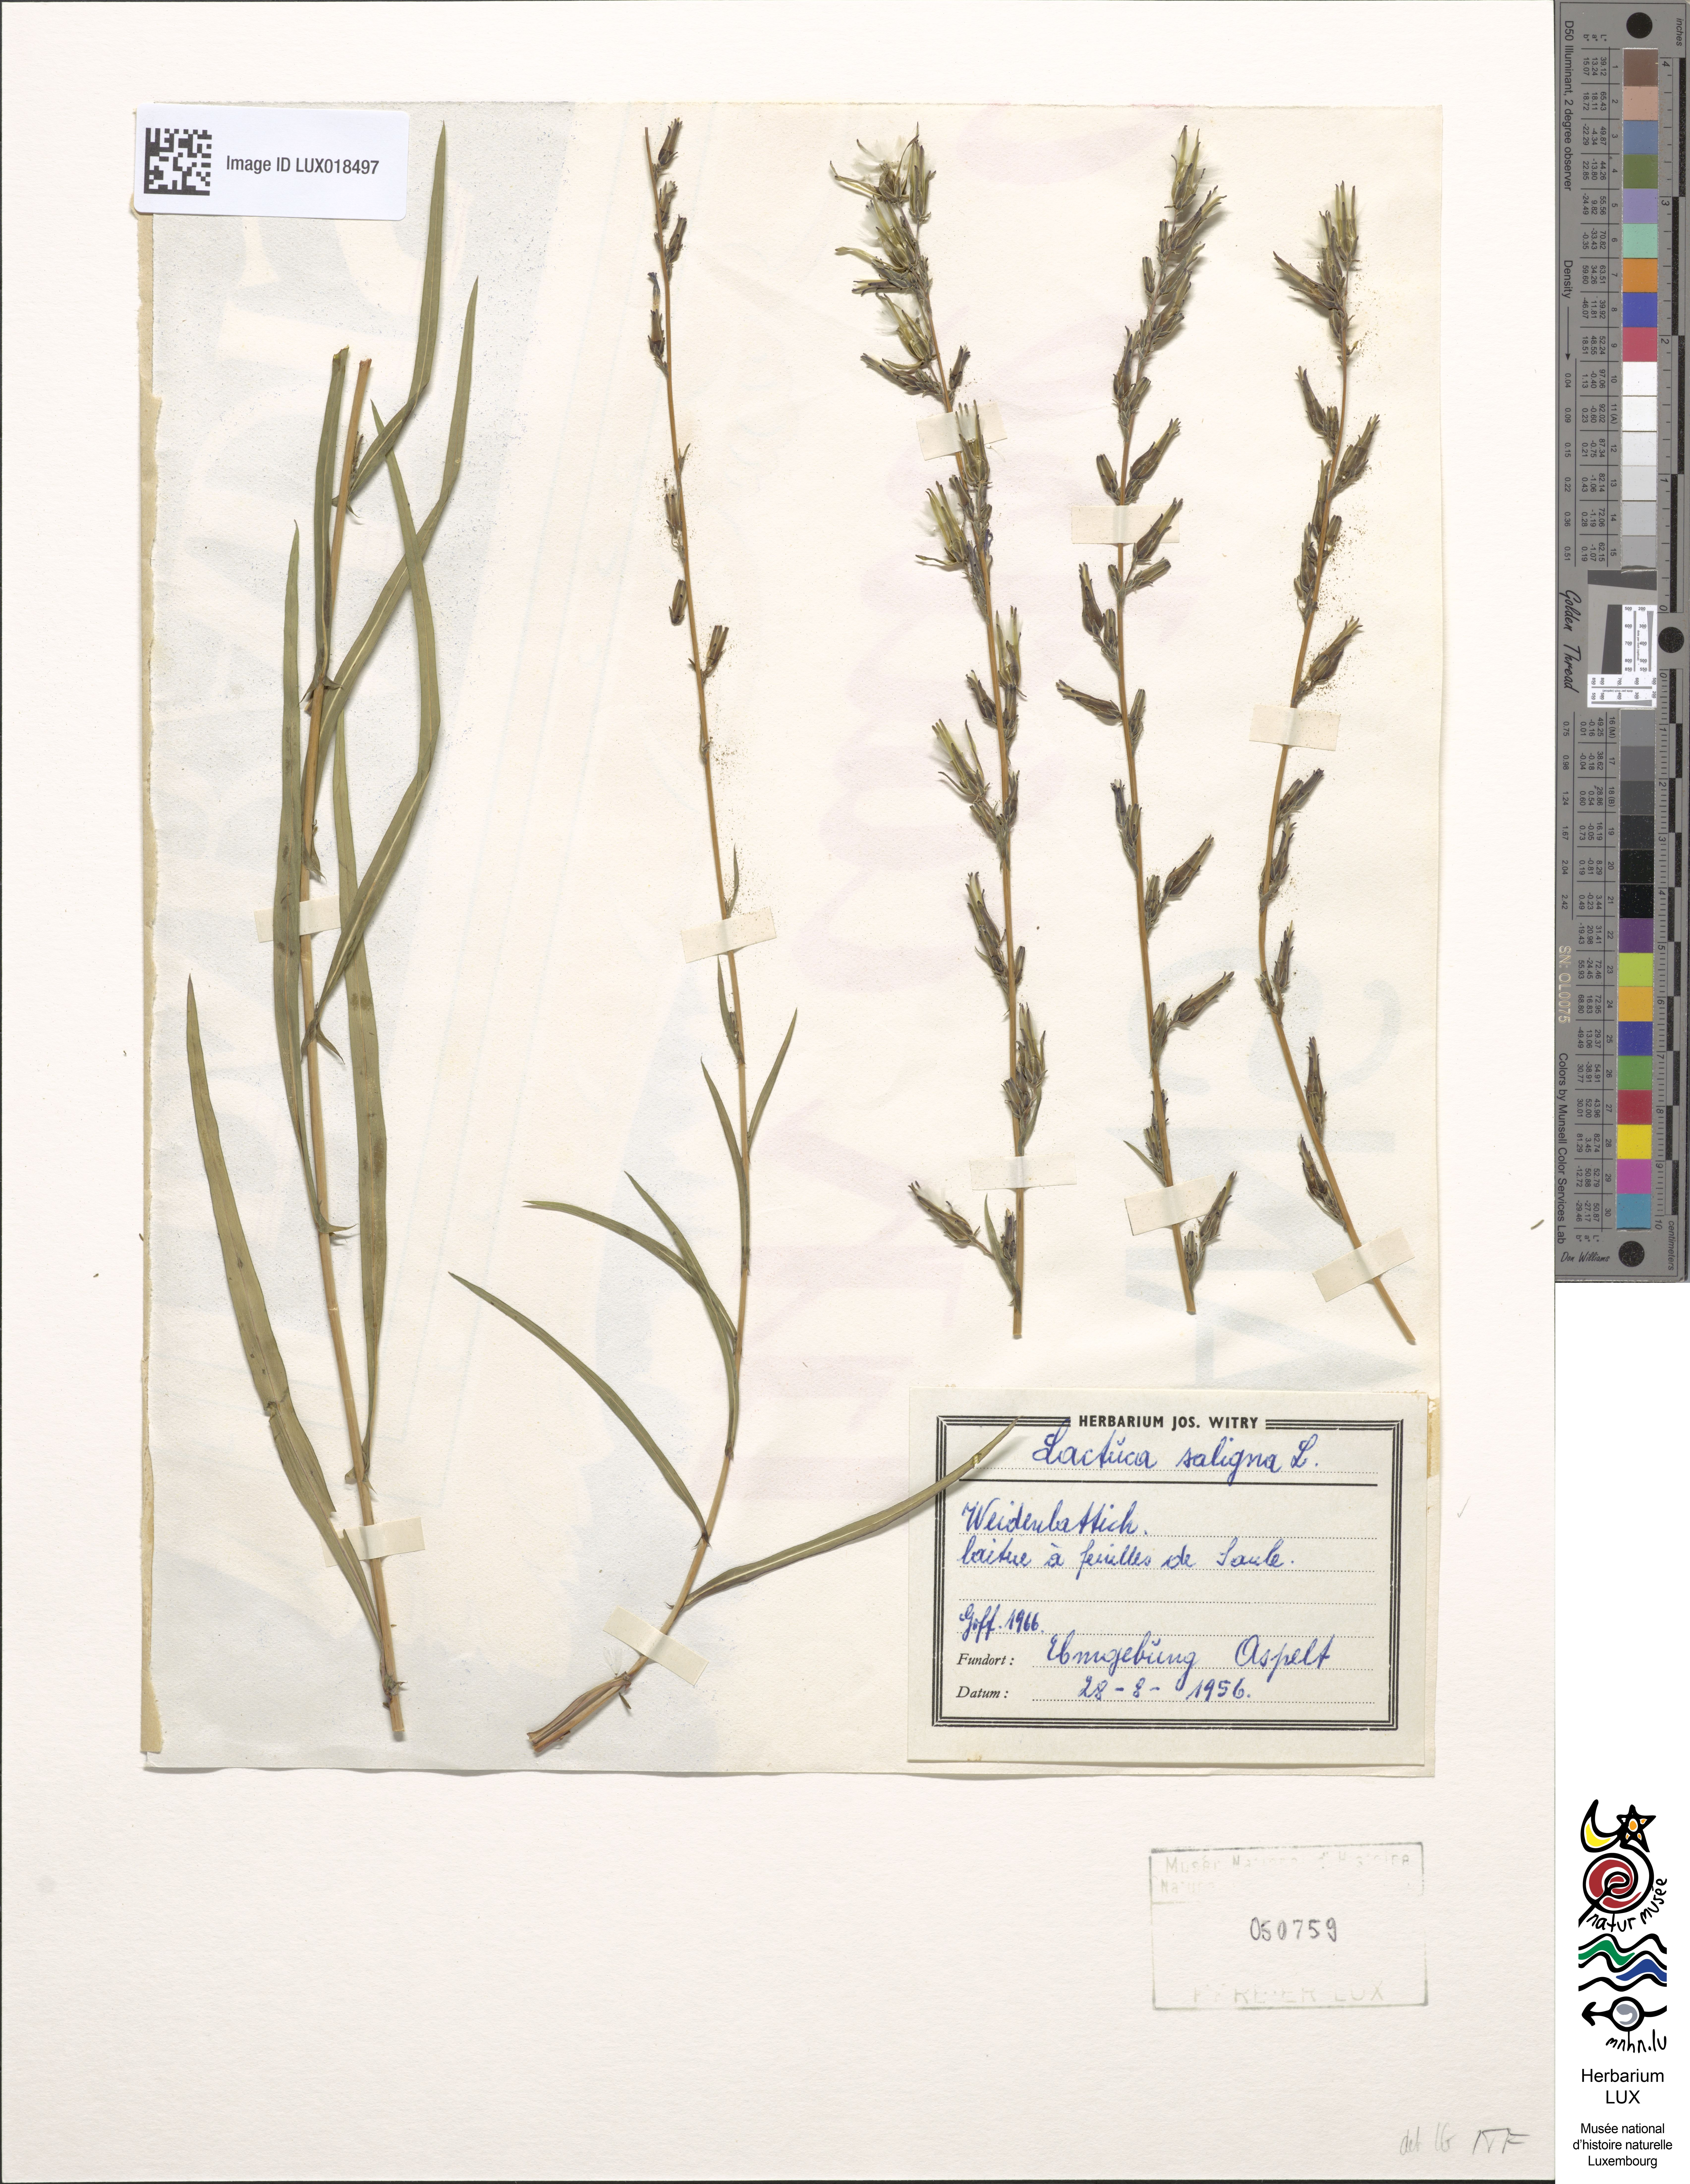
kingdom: Plantae
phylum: Tracheophyta
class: Magnoliopsida
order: Asterales
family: Asteraceae
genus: Lactuca
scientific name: Lactuca saligna
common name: Wild lettuce
